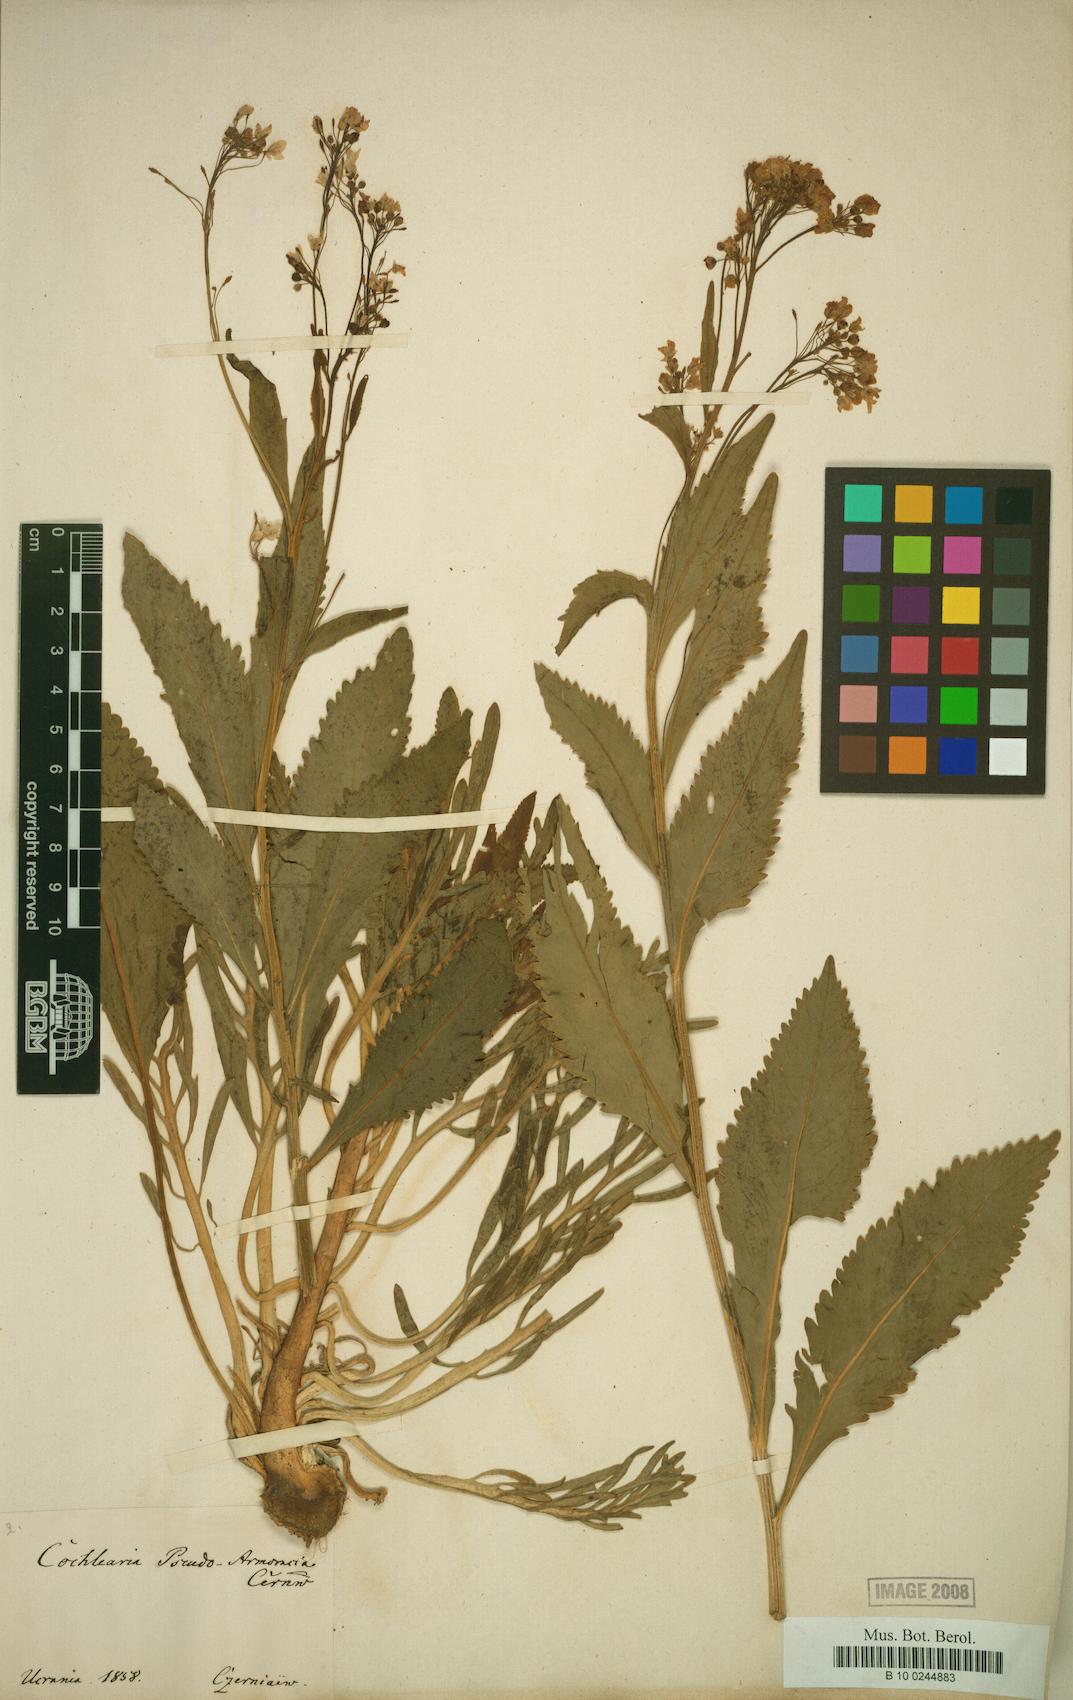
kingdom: Plantae
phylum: Tracheophyta
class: Magnoliopsida
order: Brassicales
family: Brassicaceae
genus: Armoracia
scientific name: Armoracia macrocarpa
